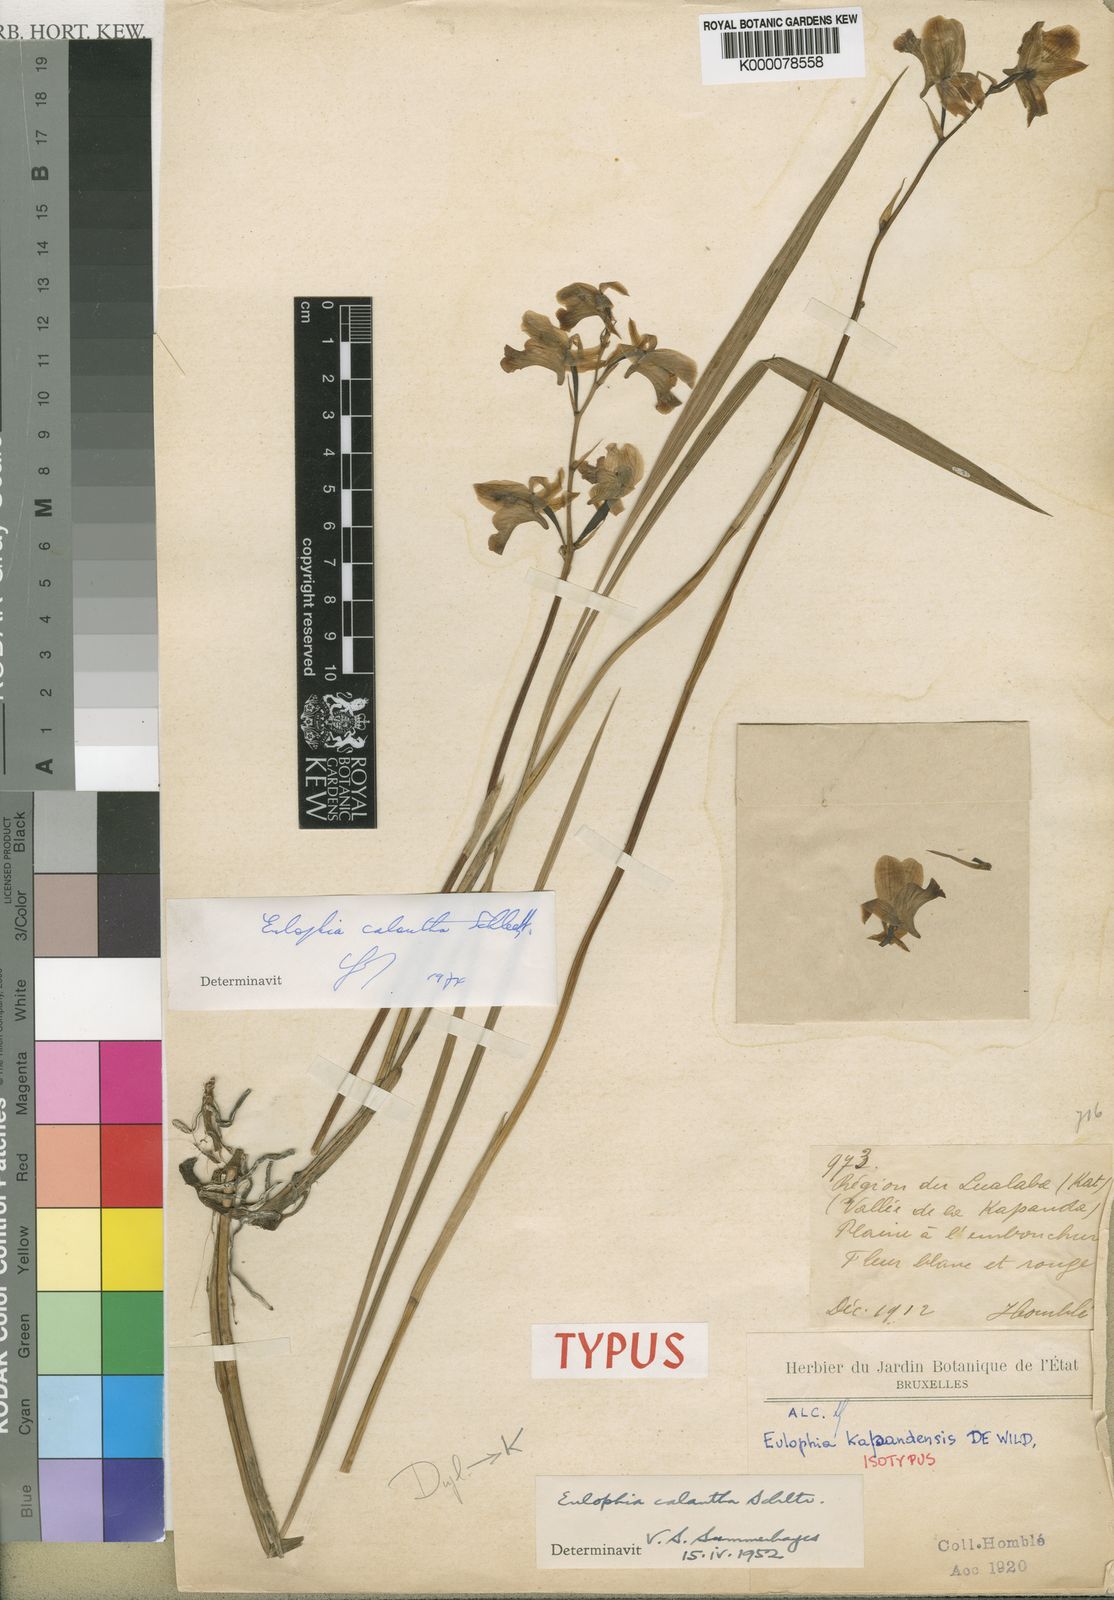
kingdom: Plantae
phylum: Tracheophyta
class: Liliopsida
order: Asparagales
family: Orchidaceae
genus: Eulophia
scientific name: Eulophia calantha
